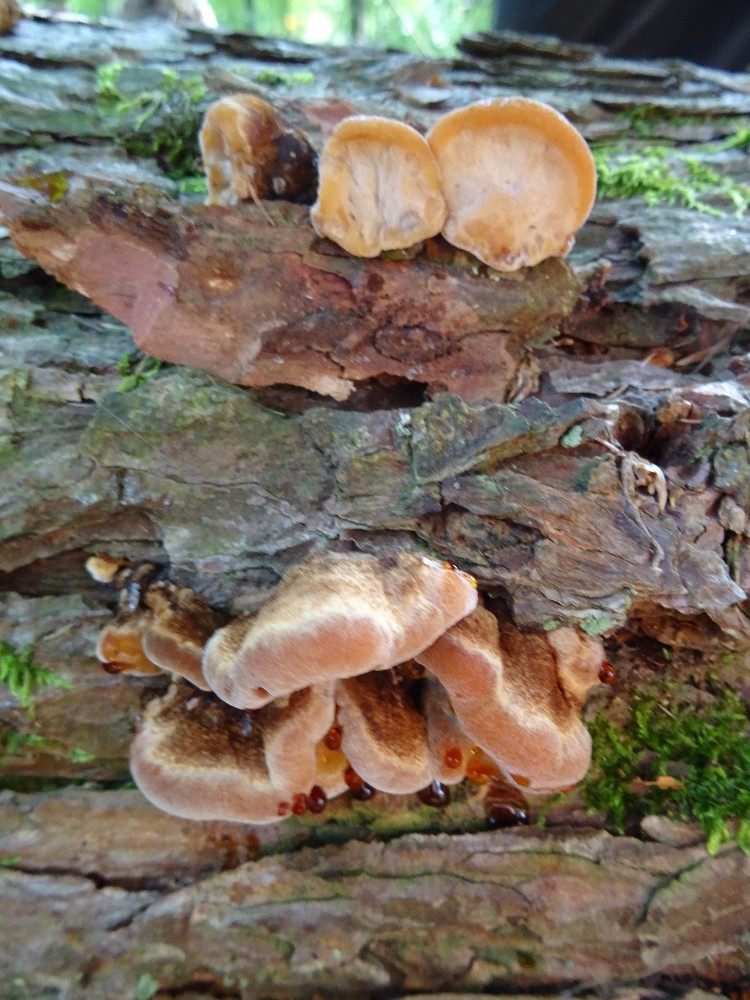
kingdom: Fungi
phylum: Basidiomycota
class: Agaricomycetes
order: Polyporales
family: Ischnodermataceae
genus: Ischnoderma
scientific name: Ischnoderma benzoinum
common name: gran-tjæreporesvamp
